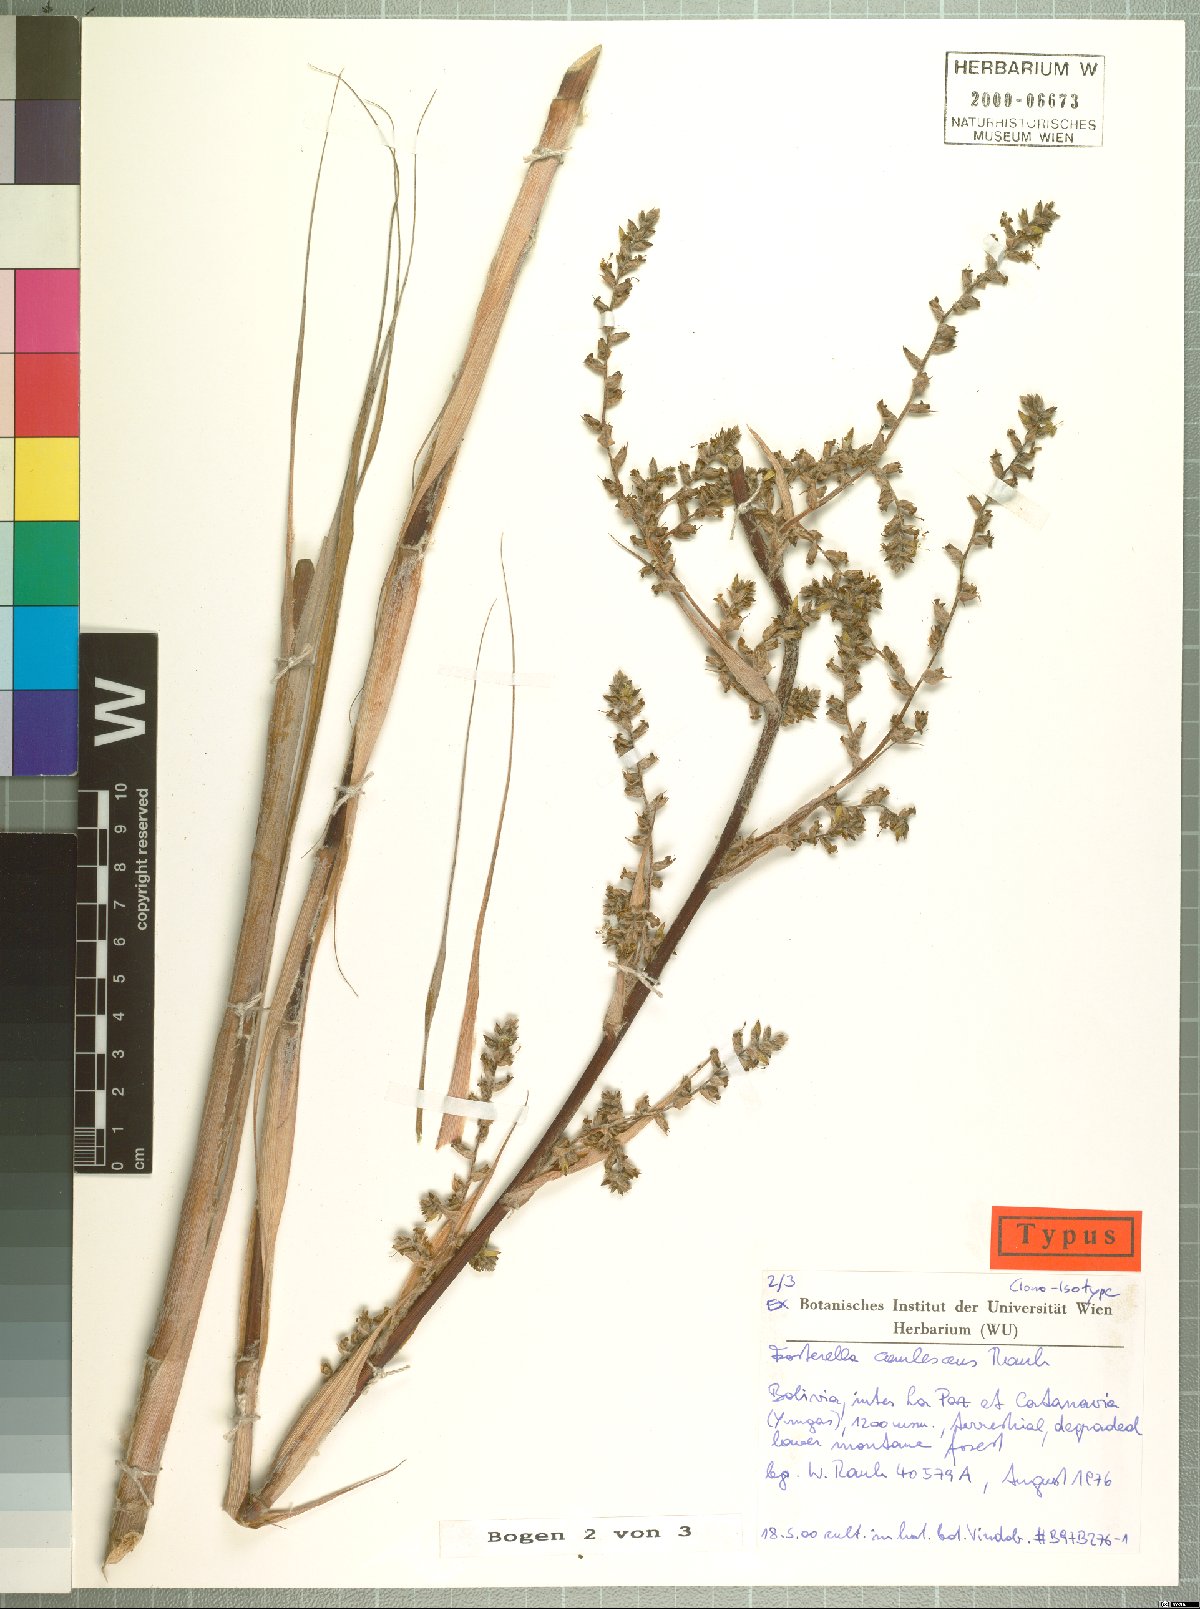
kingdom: Plantae
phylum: Tracheophyta
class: Liliopsida
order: Poales
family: Bromeliaceae
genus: Fosterella
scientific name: Fosterella caulescens
